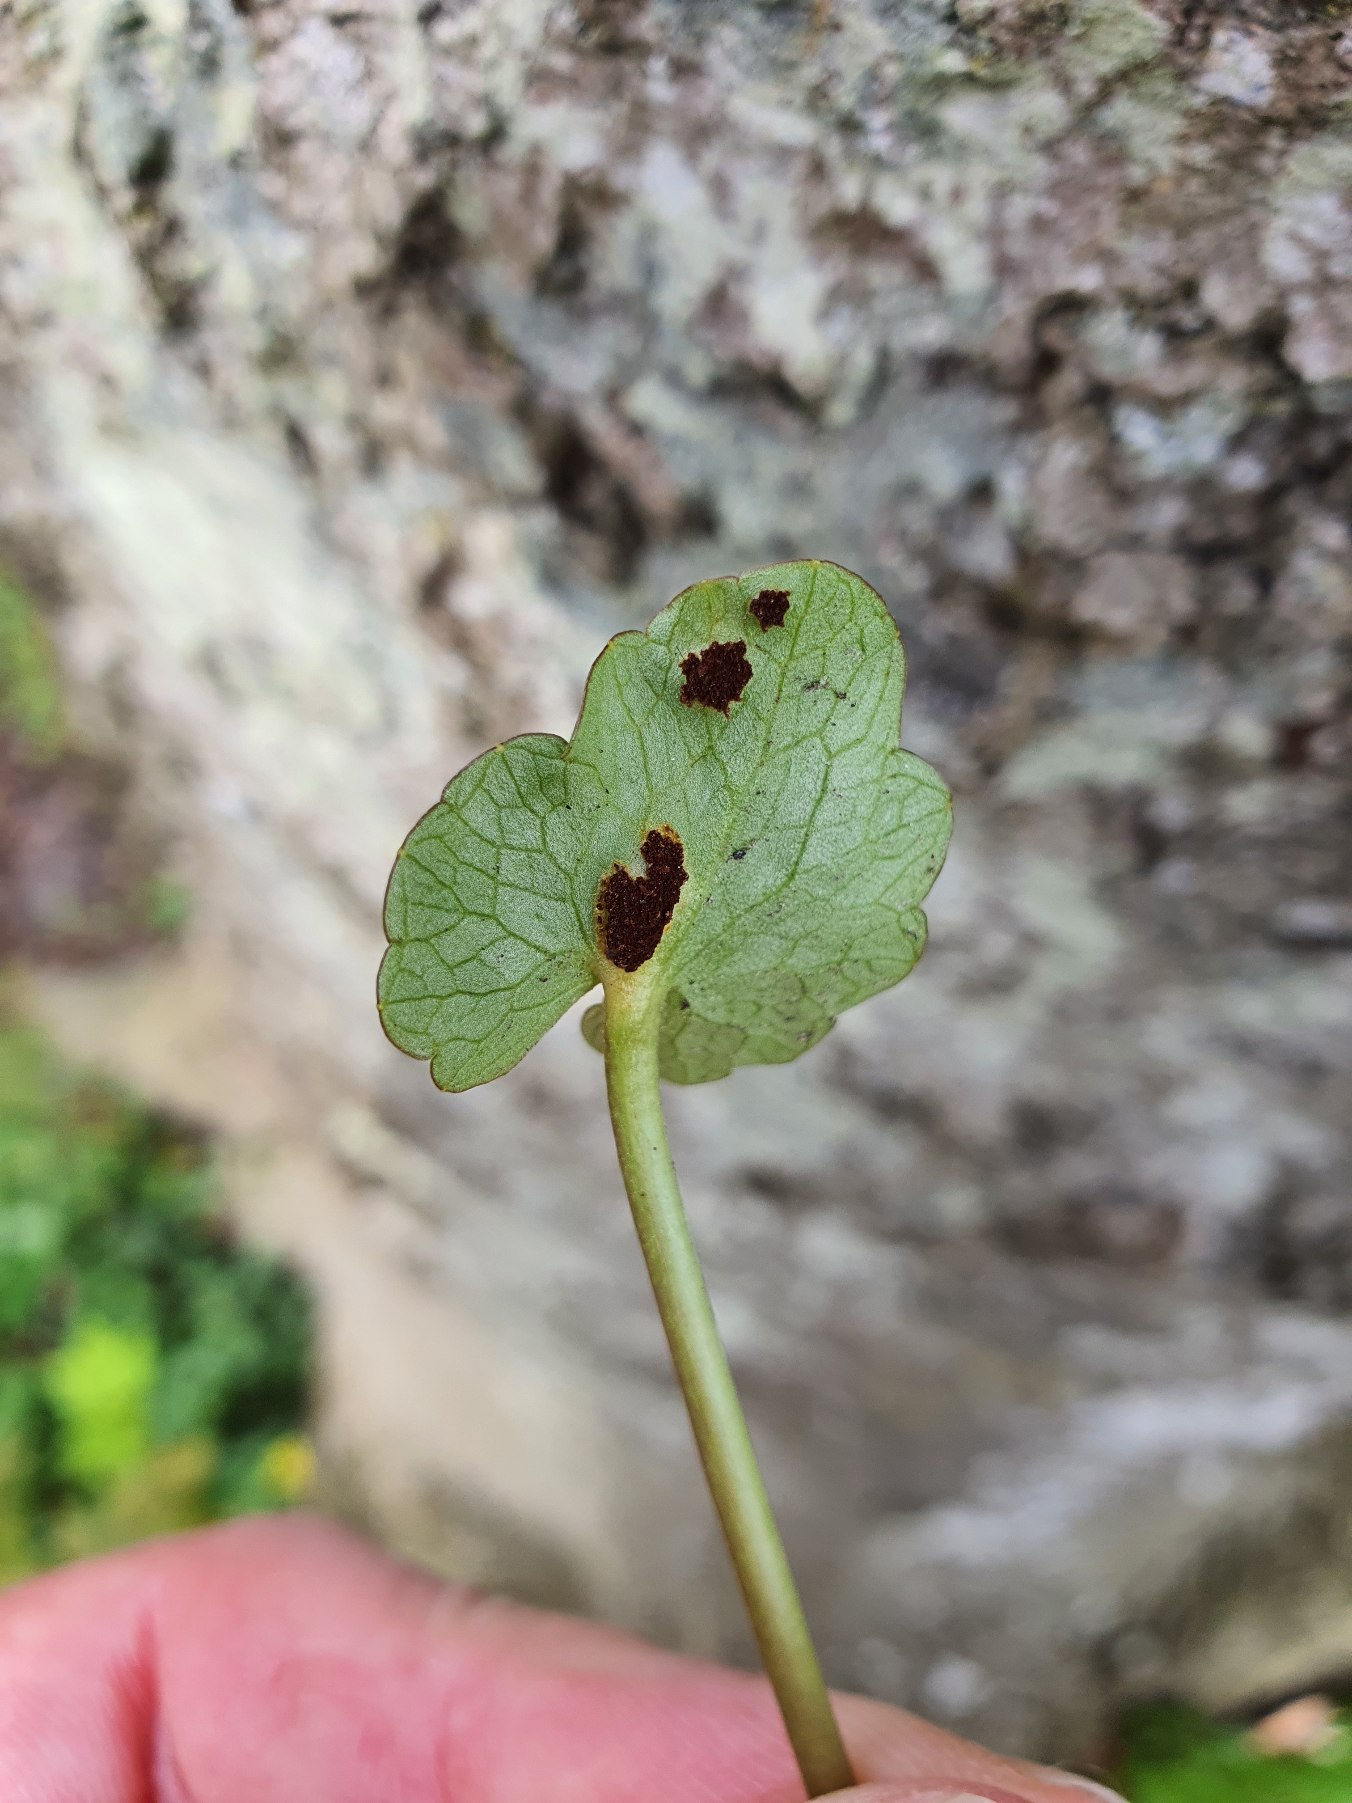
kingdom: Fungi
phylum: Basidiomycota
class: Pucciniomycetes
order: Pucciniales
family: Pucciniaceae
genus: Uromyces
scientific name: Uromyces ficariae
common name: Vorterod-encellerust
